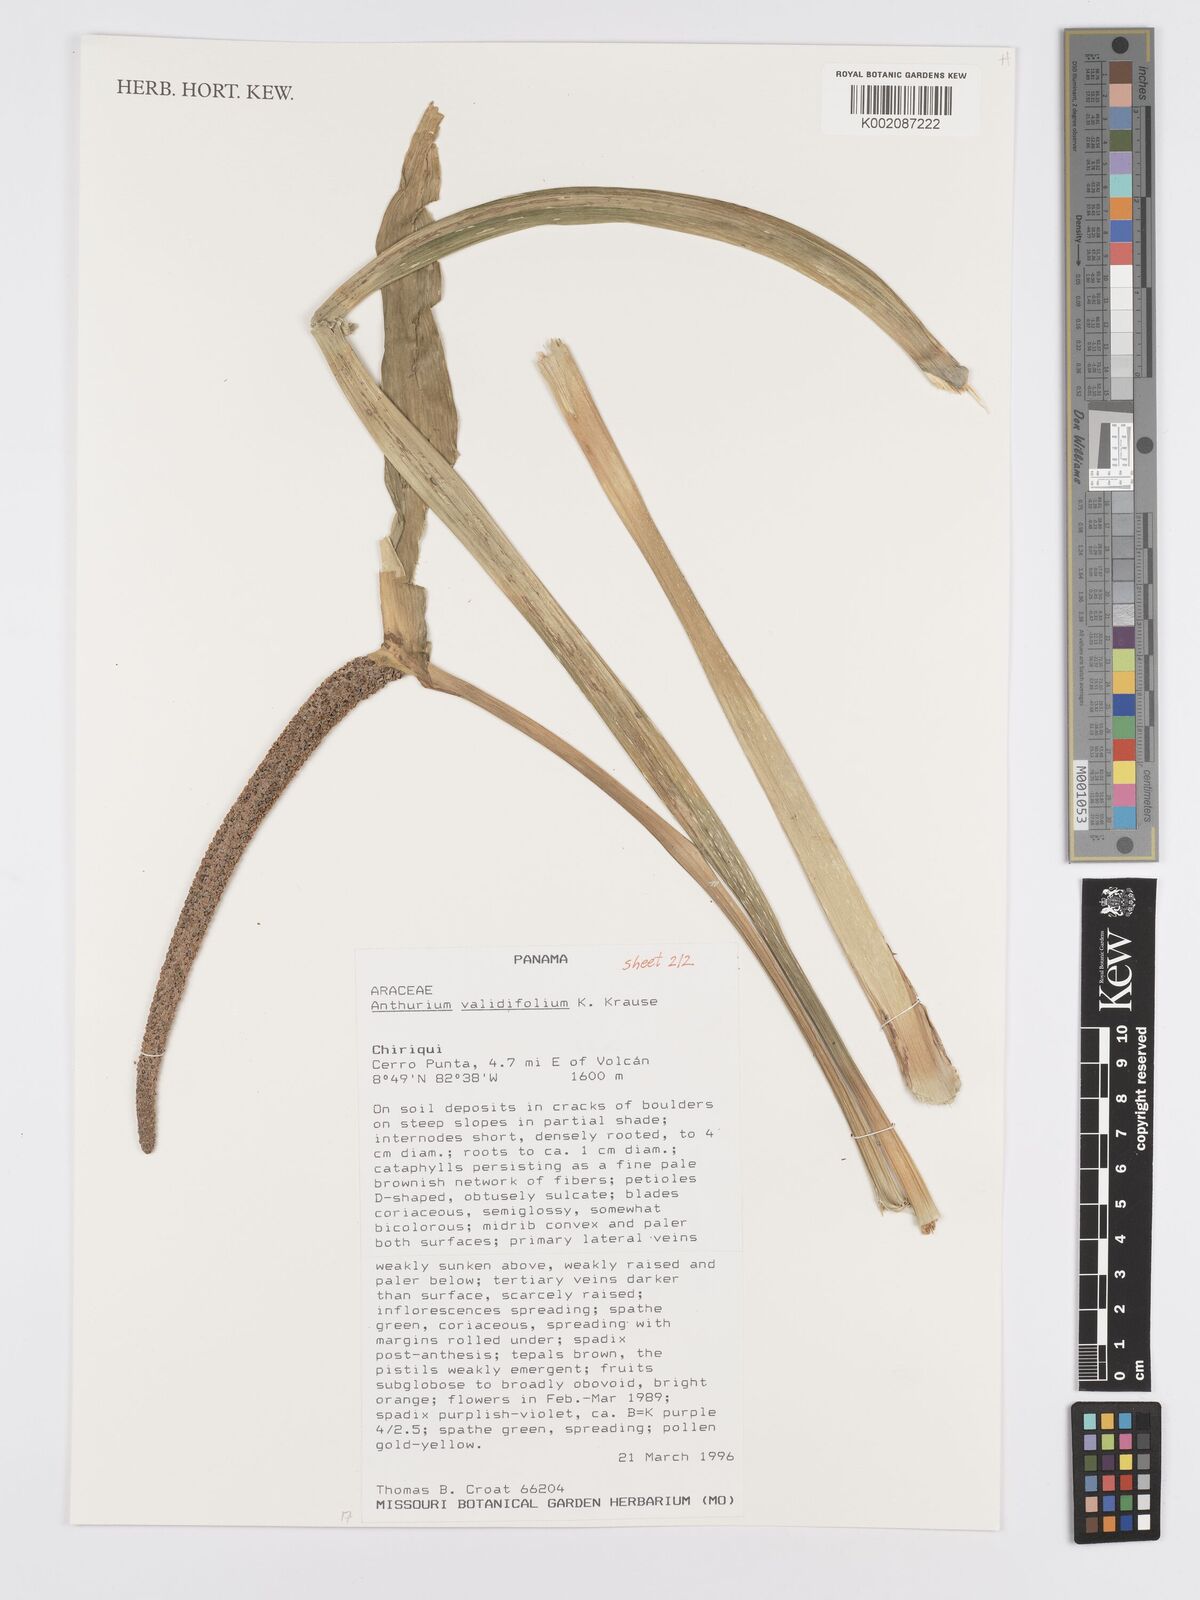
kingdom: Plantae
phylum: Tracheophyta
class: Liliopsida
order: Alismatales
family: Araceae
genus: Anthurium
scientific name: Anthurium validifolium
